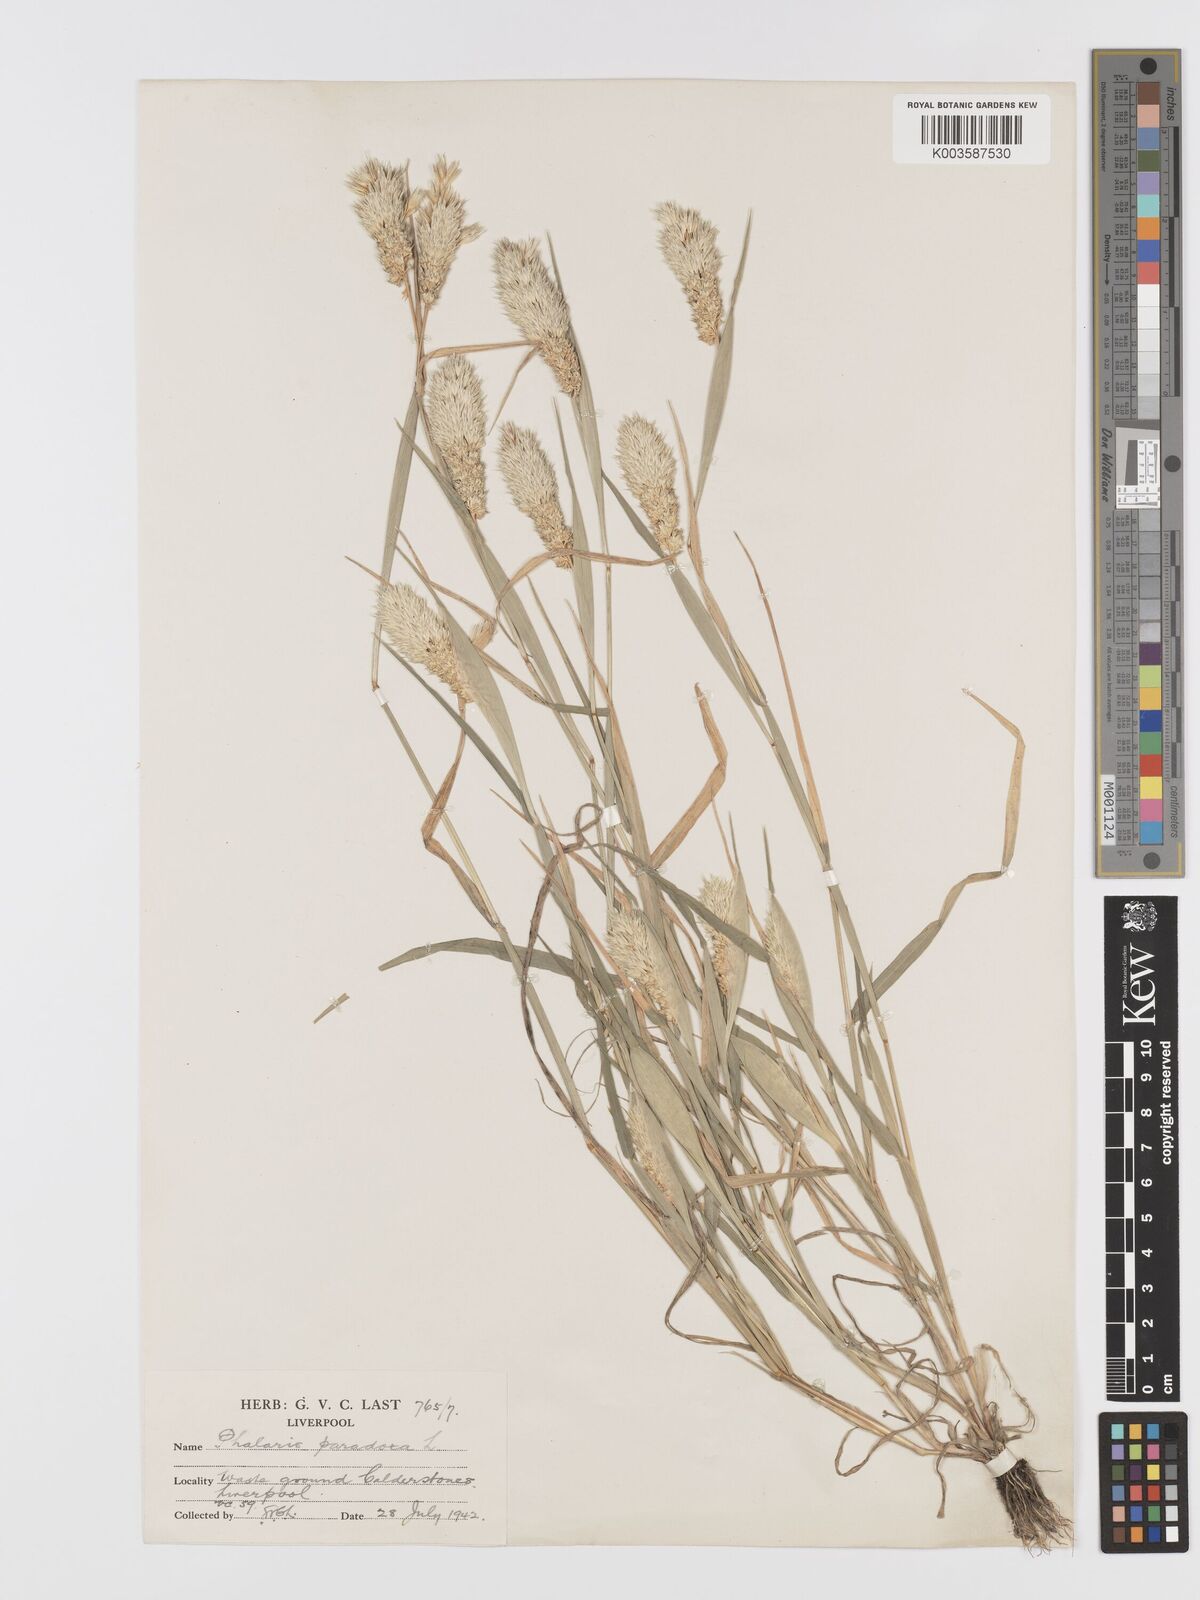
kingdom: Plantae
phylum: Tracheophyta
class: Liliopsida
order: Poales
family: Poaceae
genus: Phalaris
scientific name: Phalaris paradoxa
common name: Awned canary-grass
